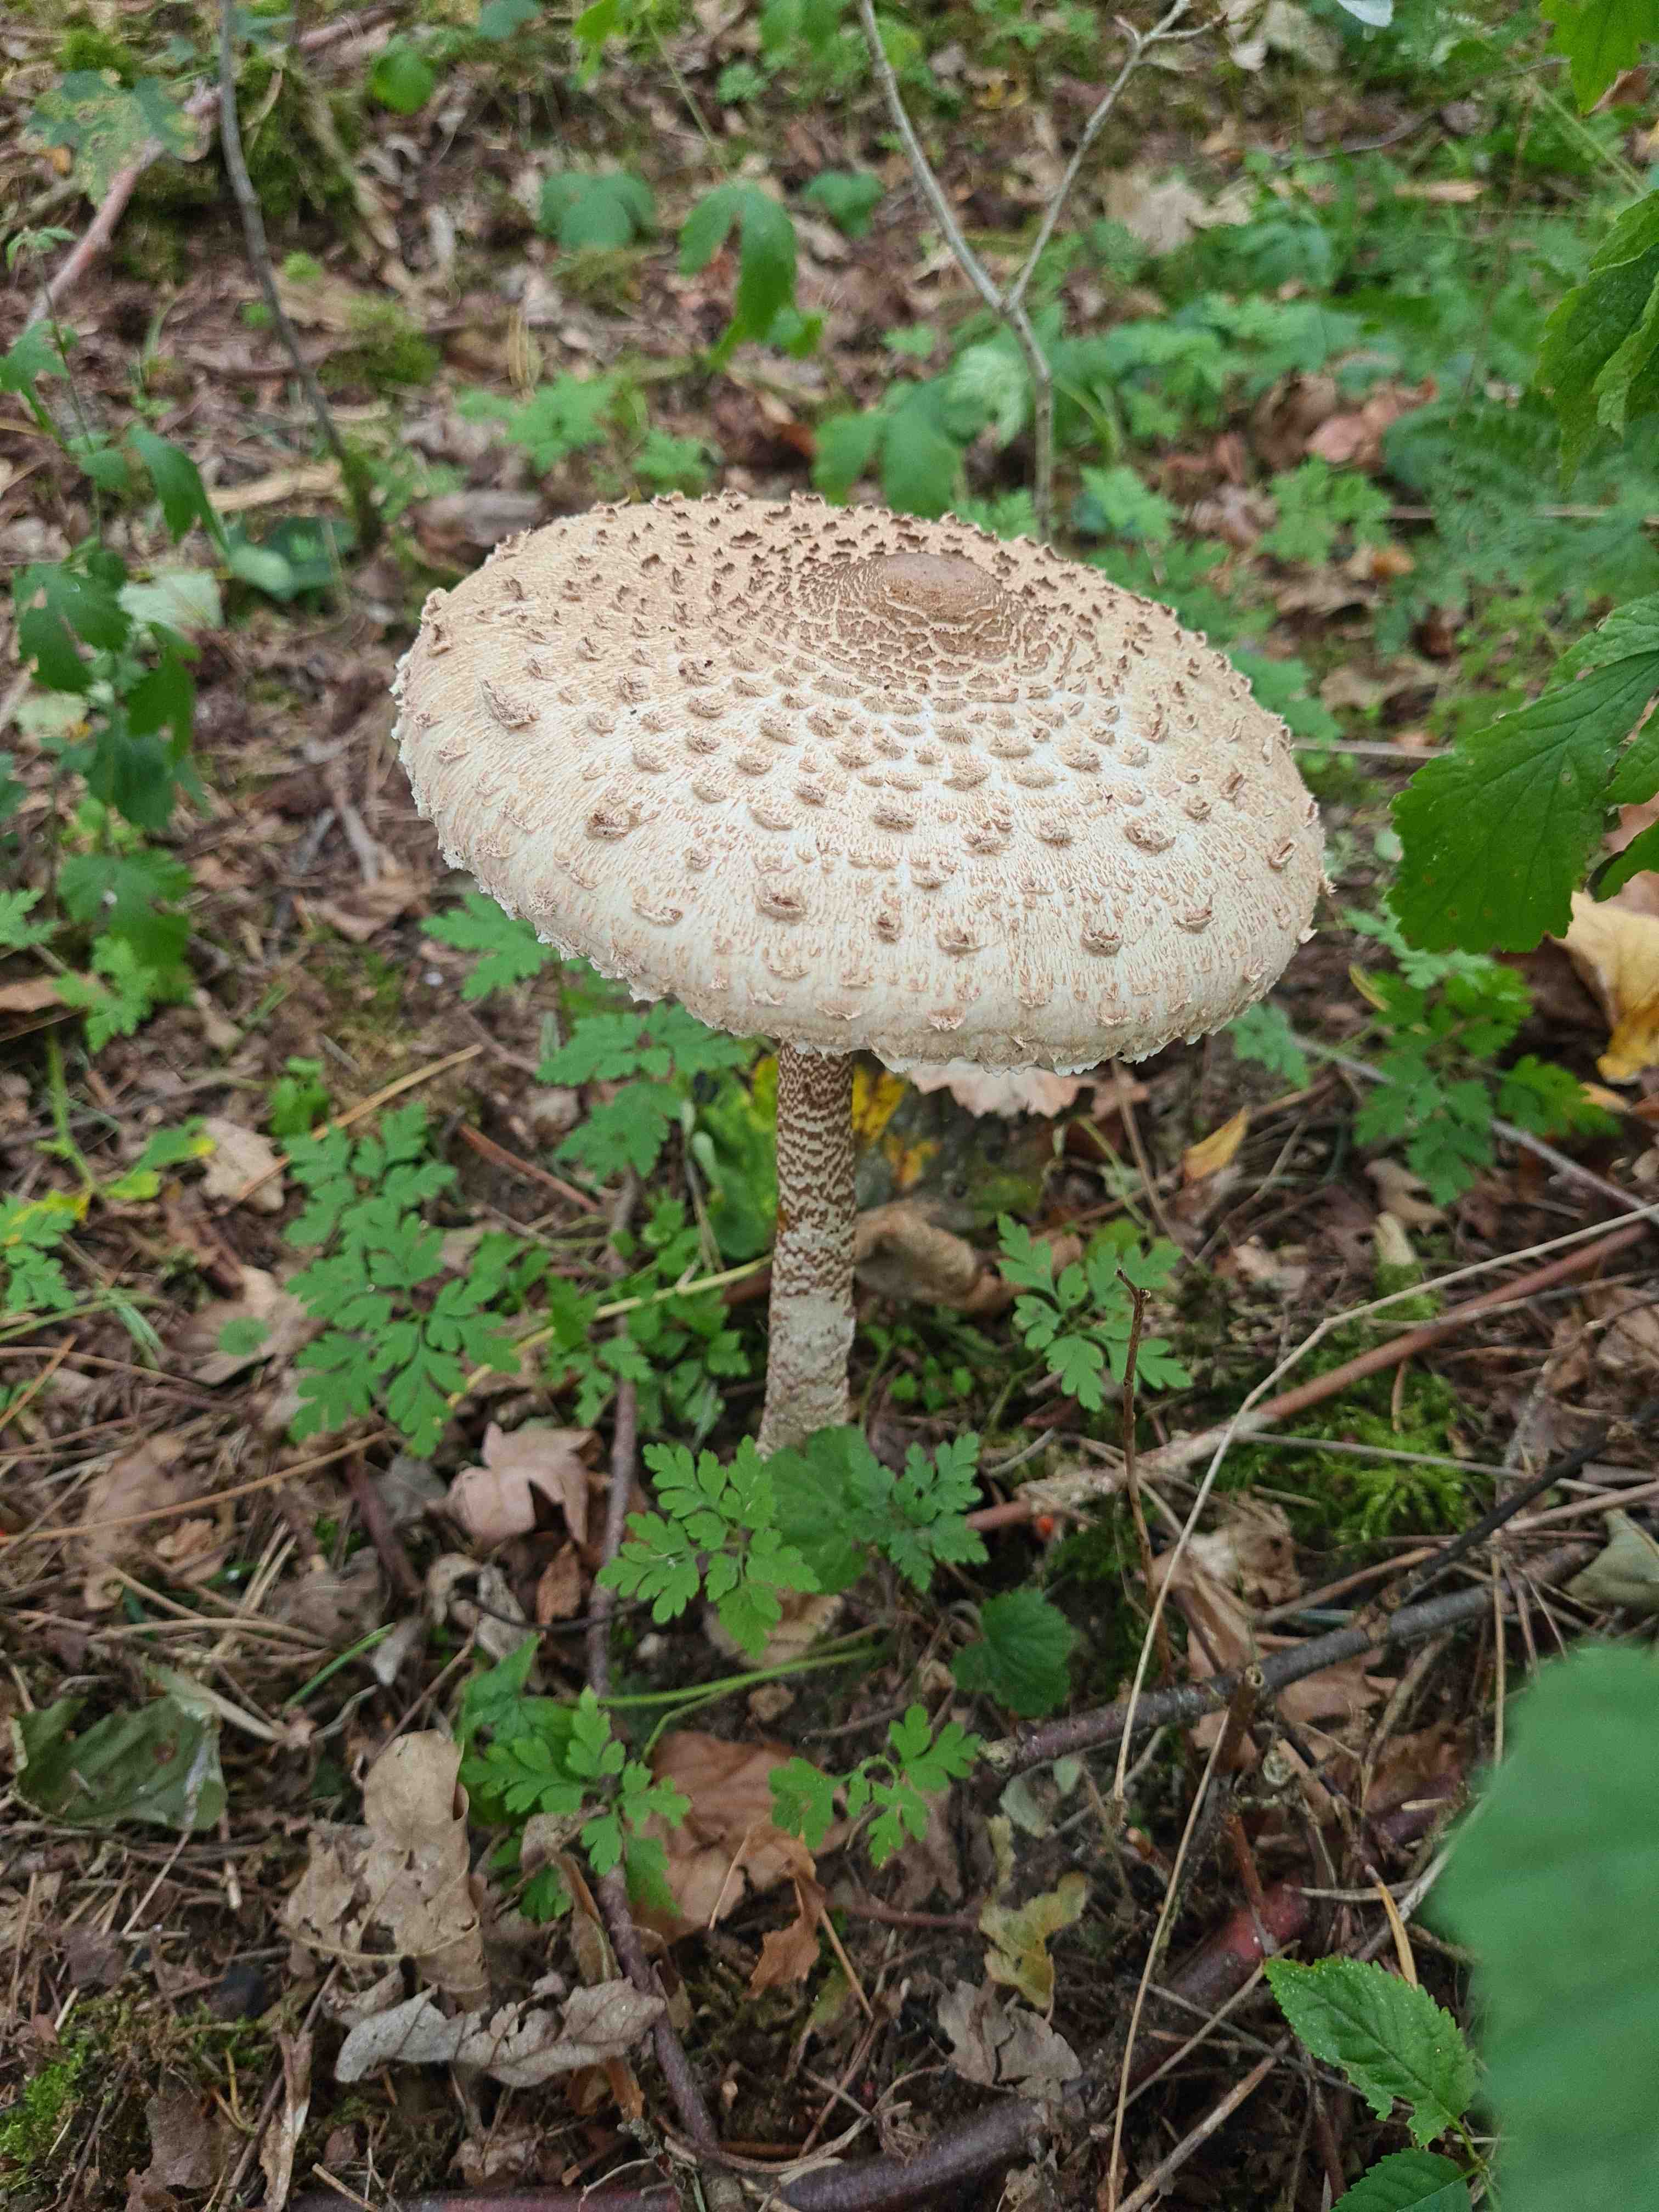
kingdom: Fungi
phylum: Basidiomycota
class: Agaricomycetes
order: Agaricales
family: Agaricaceae
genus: Macrolepiota
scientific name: Macrolepiota procera
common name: stor kæmpeparasolhat
